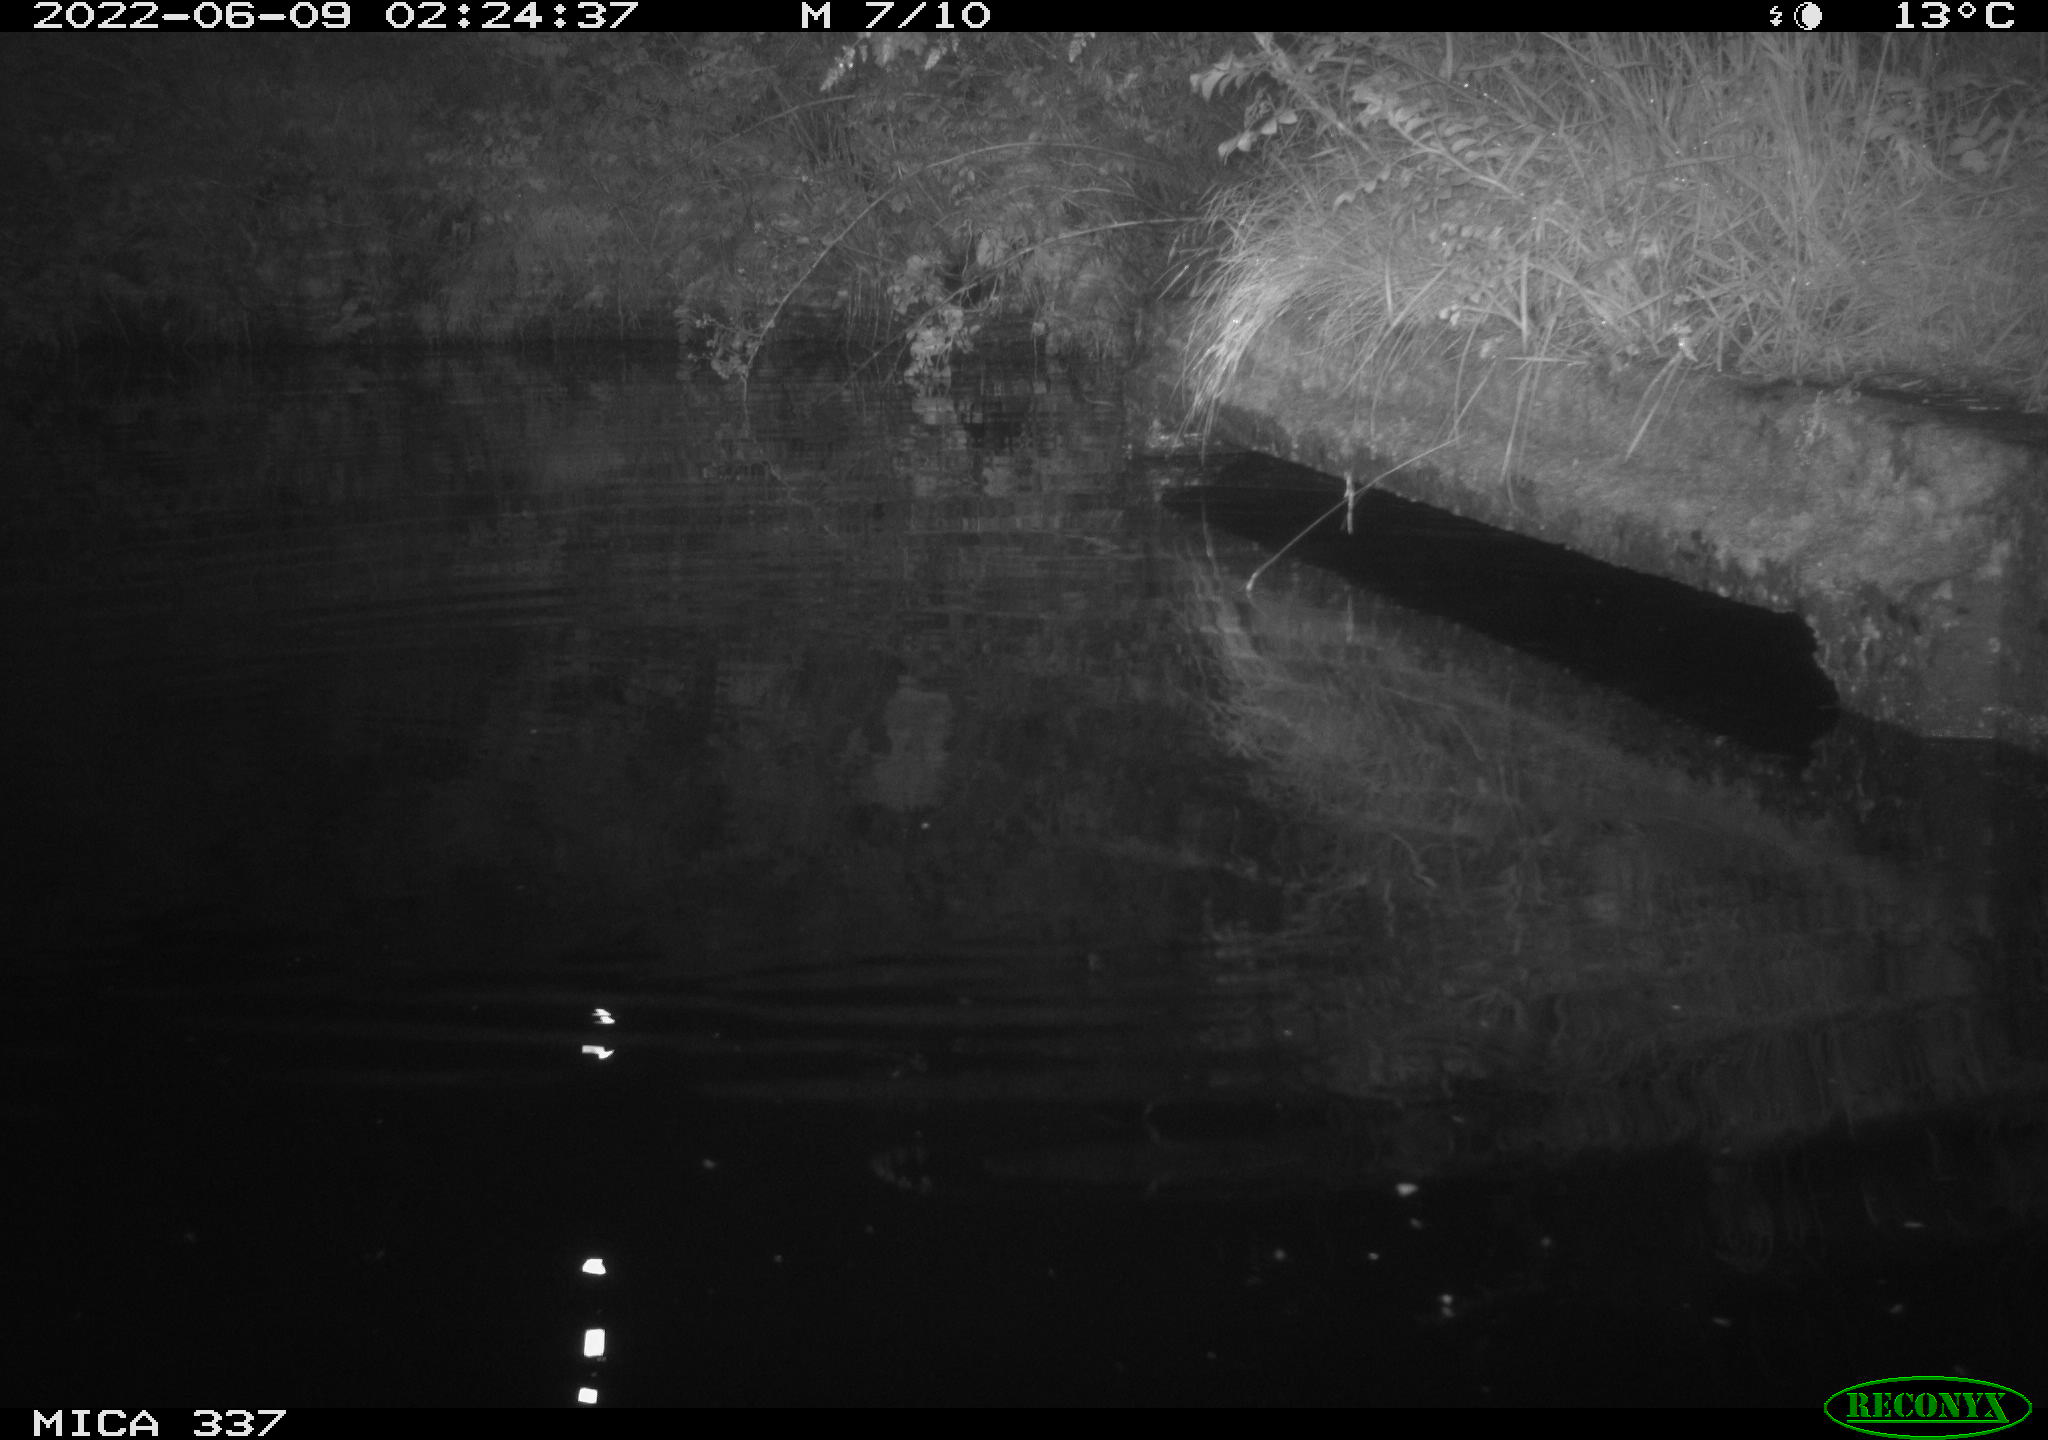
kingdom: Animalia
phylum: Chordata
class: Aves
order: Anseriformes
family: Anatidae
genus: Anas
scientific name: Anas platyrhynchos
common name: Mallard
